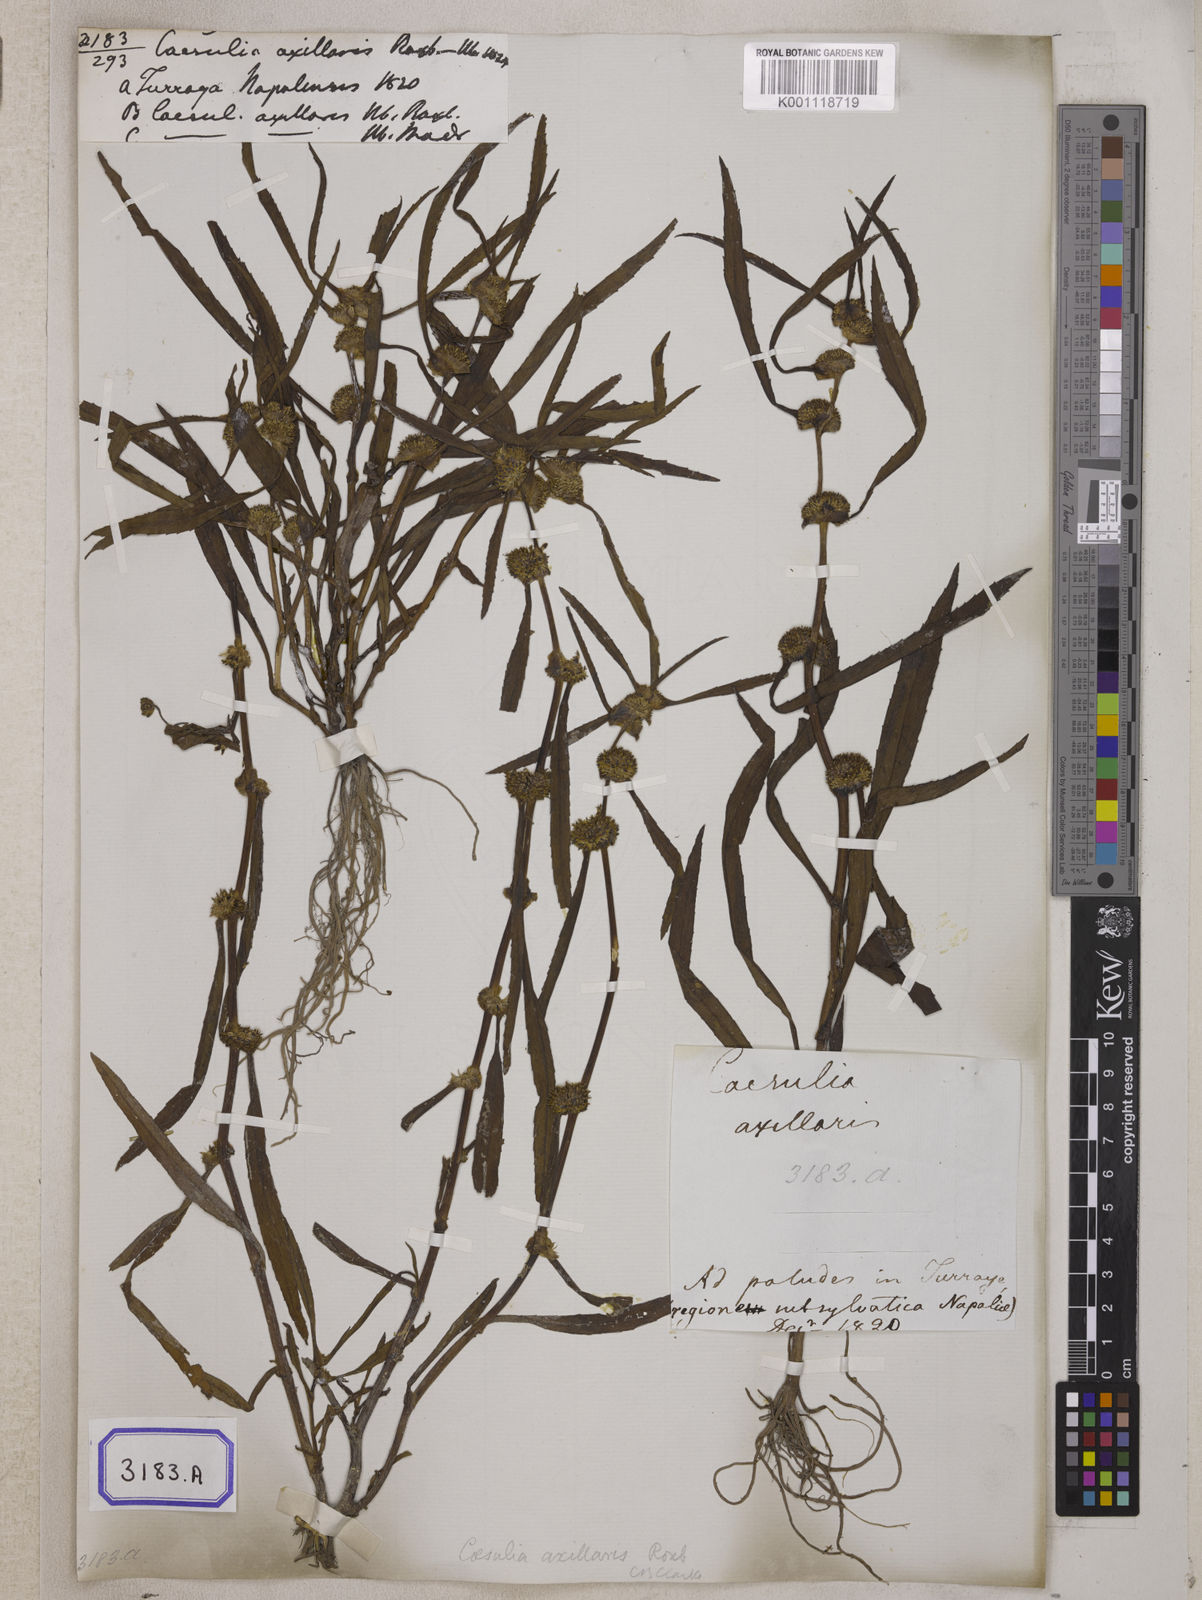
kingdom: Plantae
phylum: Tracheophyta
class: Magnoliopsida
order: Asterales
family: Asteraceae
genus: Caesulia
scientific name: Caesulia axillaris
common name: Pink node flower
